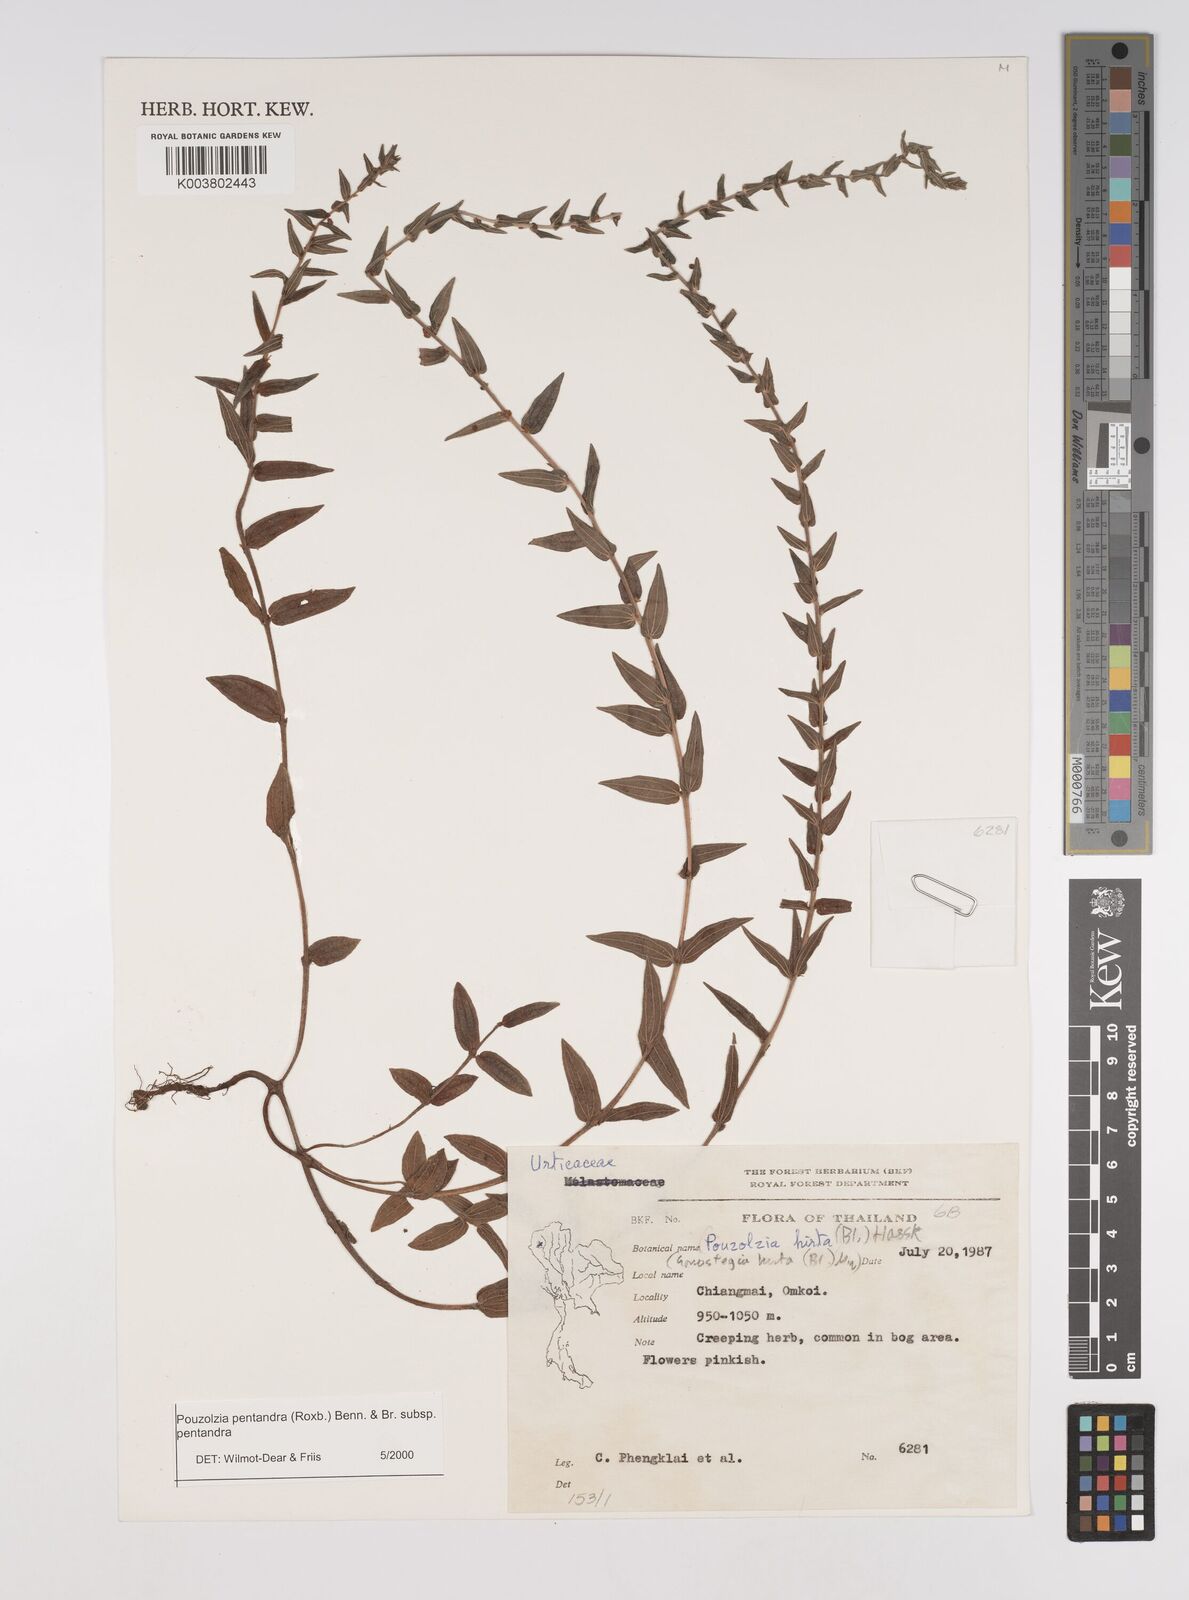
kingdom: Plantae
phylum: Tracheophyta
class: Magnoliopsida
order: Rosales
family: Urticaceae
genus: Gonostegia
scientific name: Gonostegia pentandra
